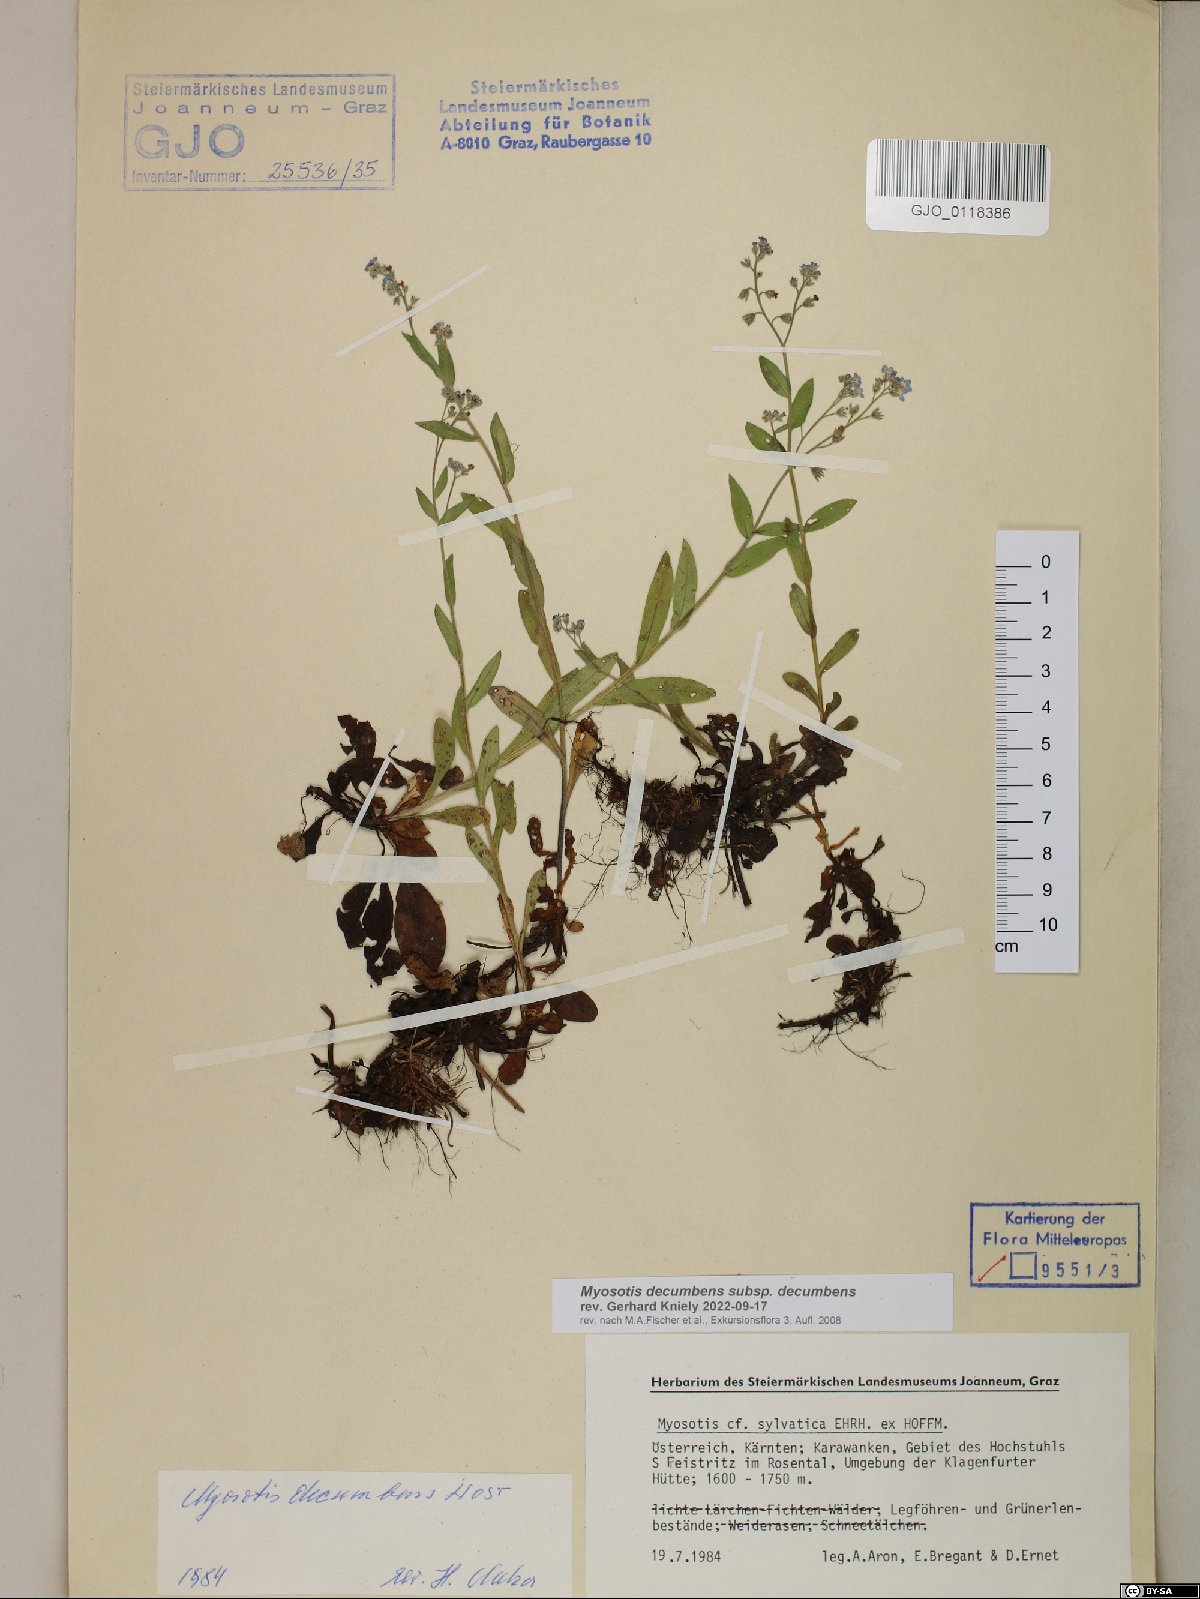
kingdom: Plantae
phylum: Tracheophyta
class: Magnoliopsida
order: Boraginales
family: Boraginaceae
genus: Myosotis
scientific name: Myosotis decumbens
